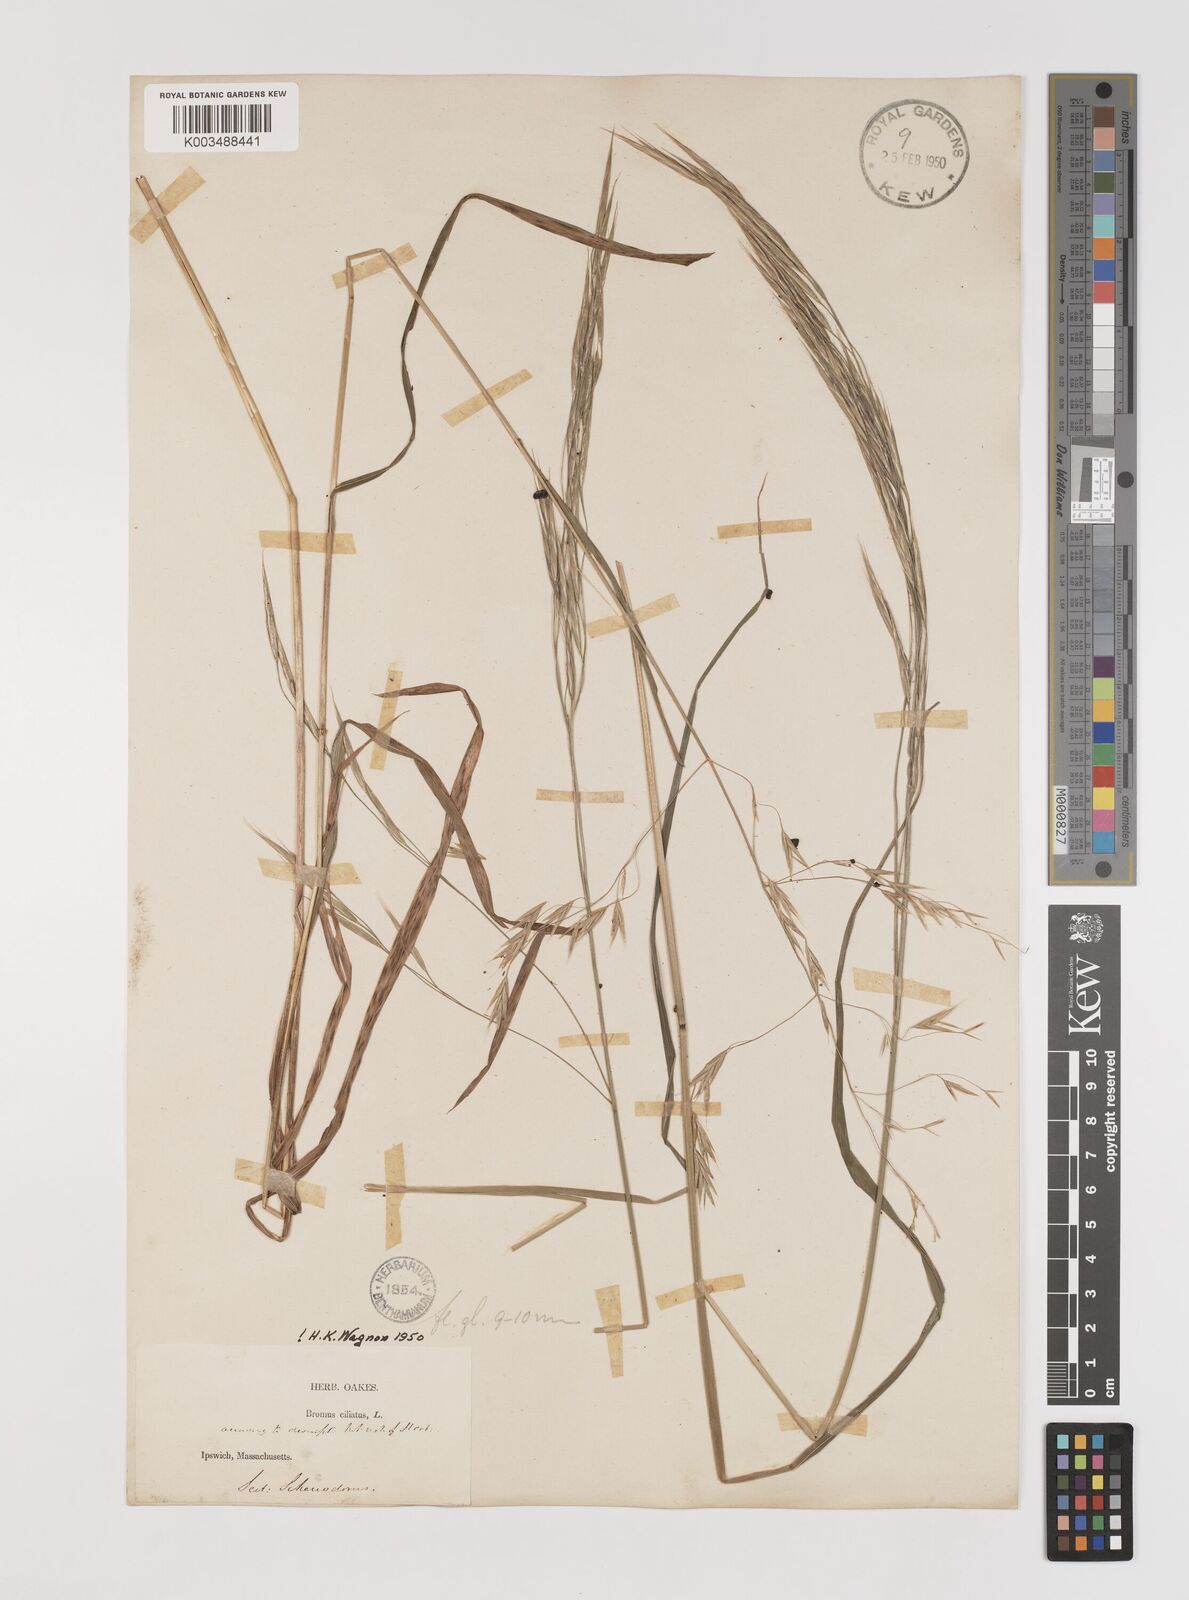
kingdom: Plantae
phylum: Tracheophyta
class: Liliopsida
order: Poales
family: Poaceae
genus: Bromus
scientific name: Bromus ciliatus
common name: Fringe brome
